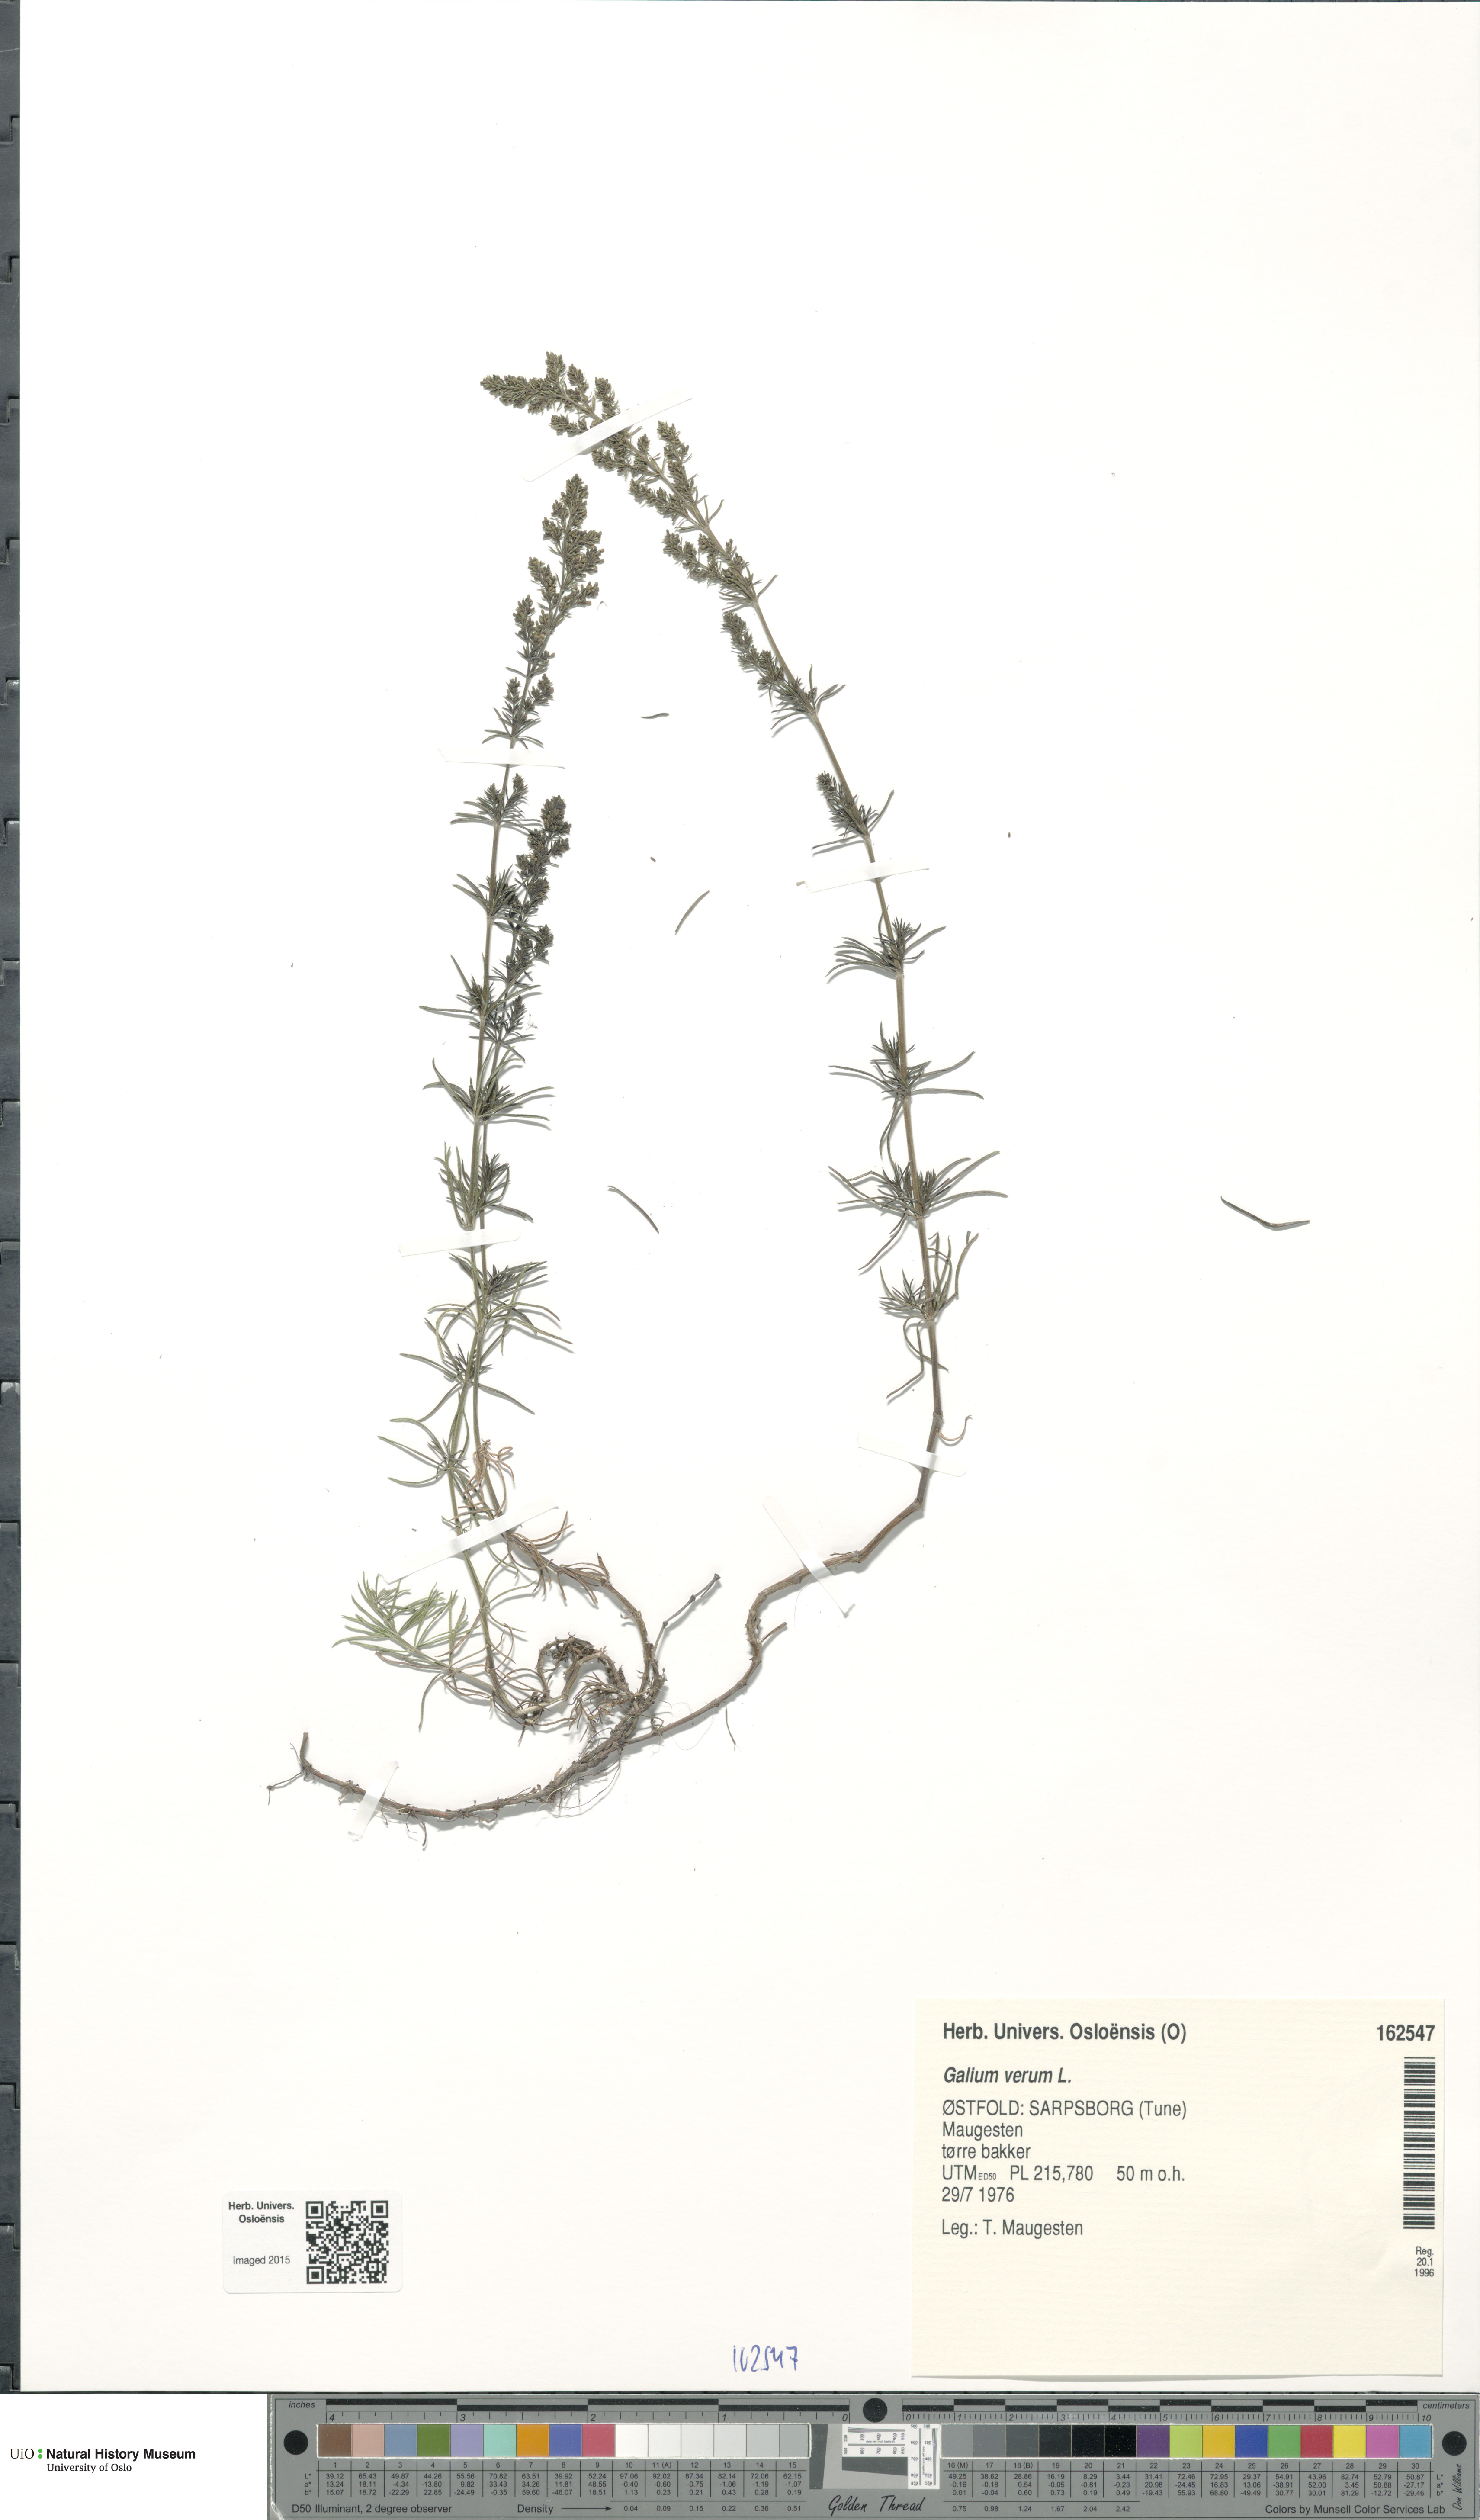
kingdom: Plantae
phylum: Tracheophyta
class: Magnoliopsida
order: Gentianales
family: Rubiaceae
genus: Galium
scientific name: Galium verum
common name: Lady's bedstraw
